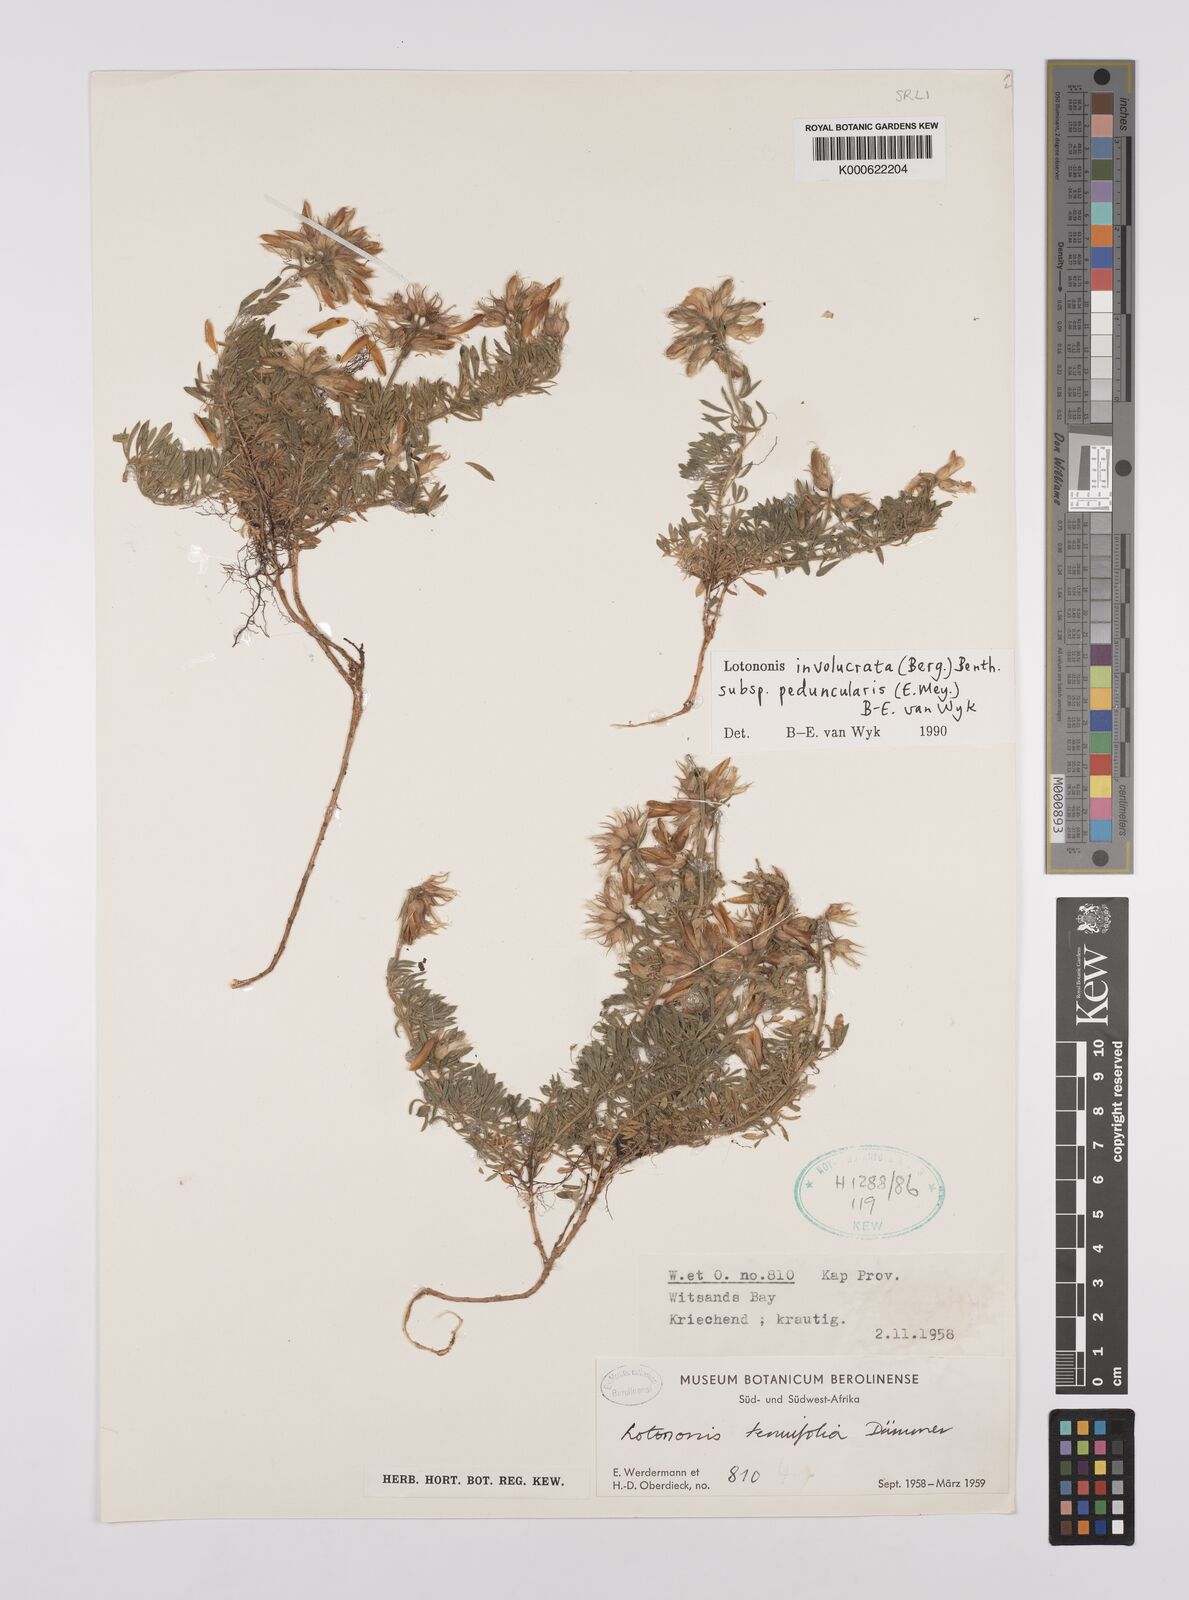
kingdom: Plantae
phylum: Tracheophyta
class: Magnoliopsida
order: Fabales
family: Fabaceae
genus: Lotononis
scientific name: Lotononis involucrata
